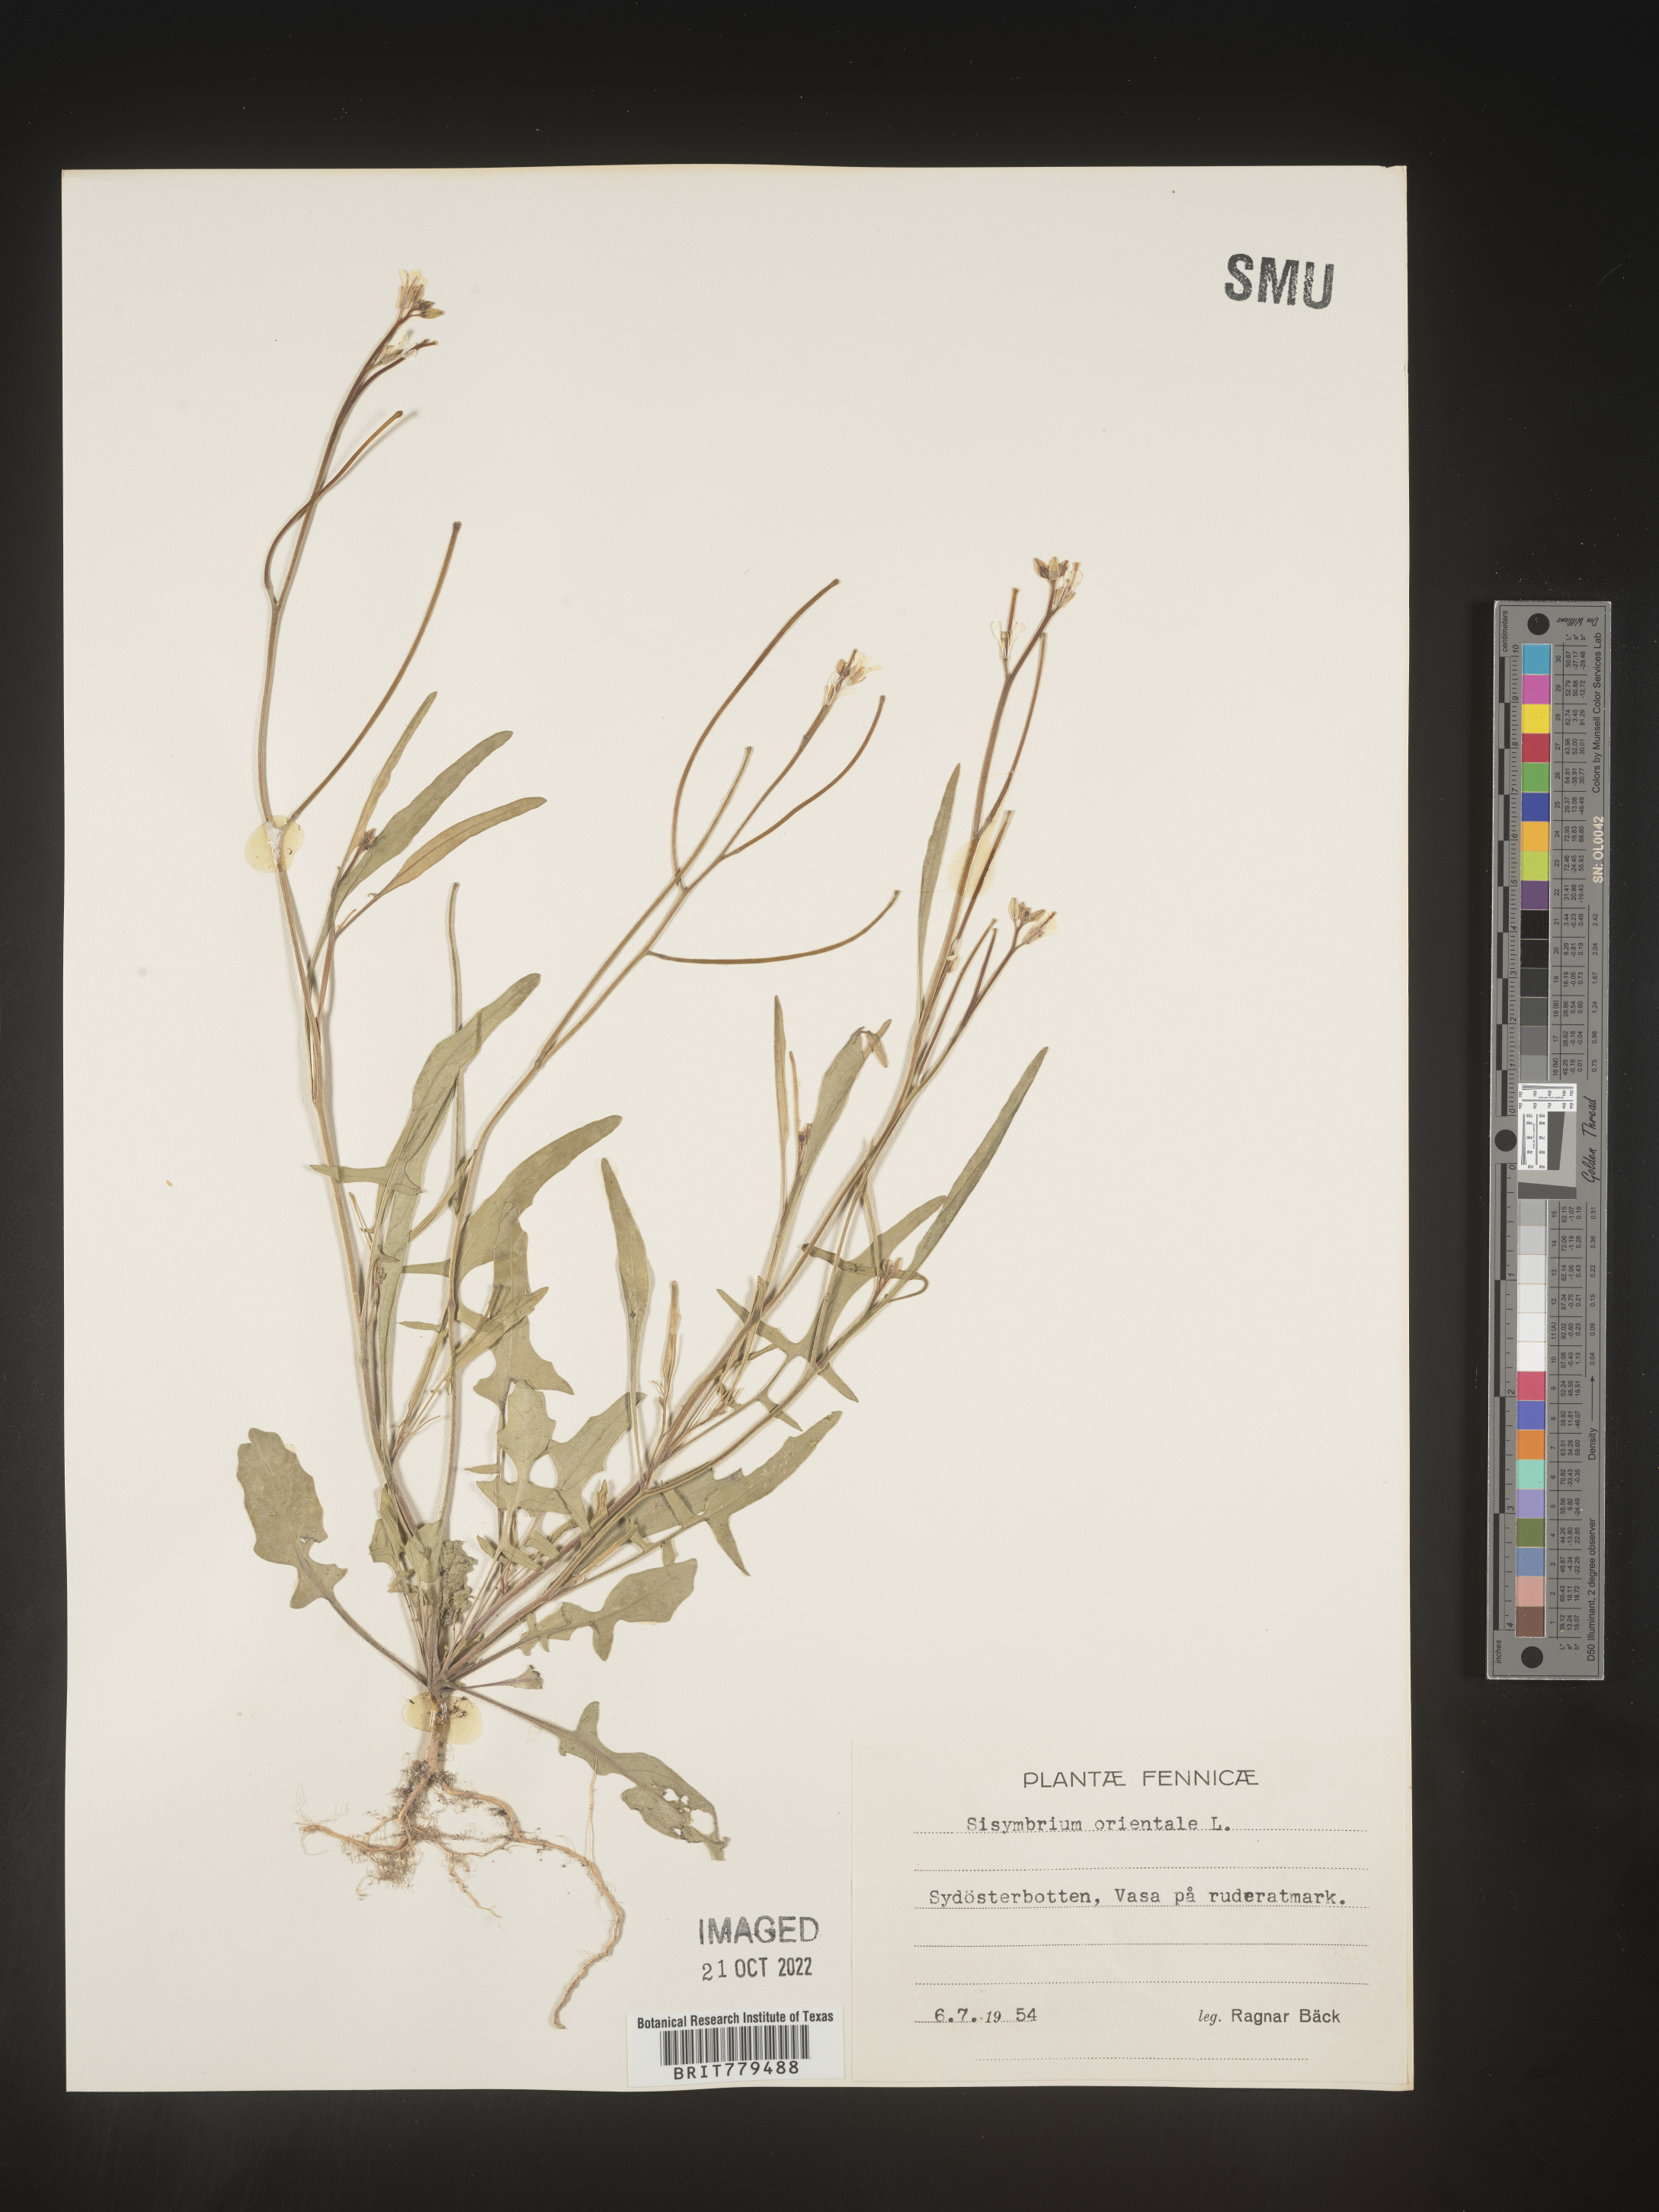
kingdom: Plantae
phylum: Tracheophyta
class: Magnoliopsida
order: Brassicales
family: Brassicaceae
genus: Sisymbrium
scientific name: Sisymbrium
